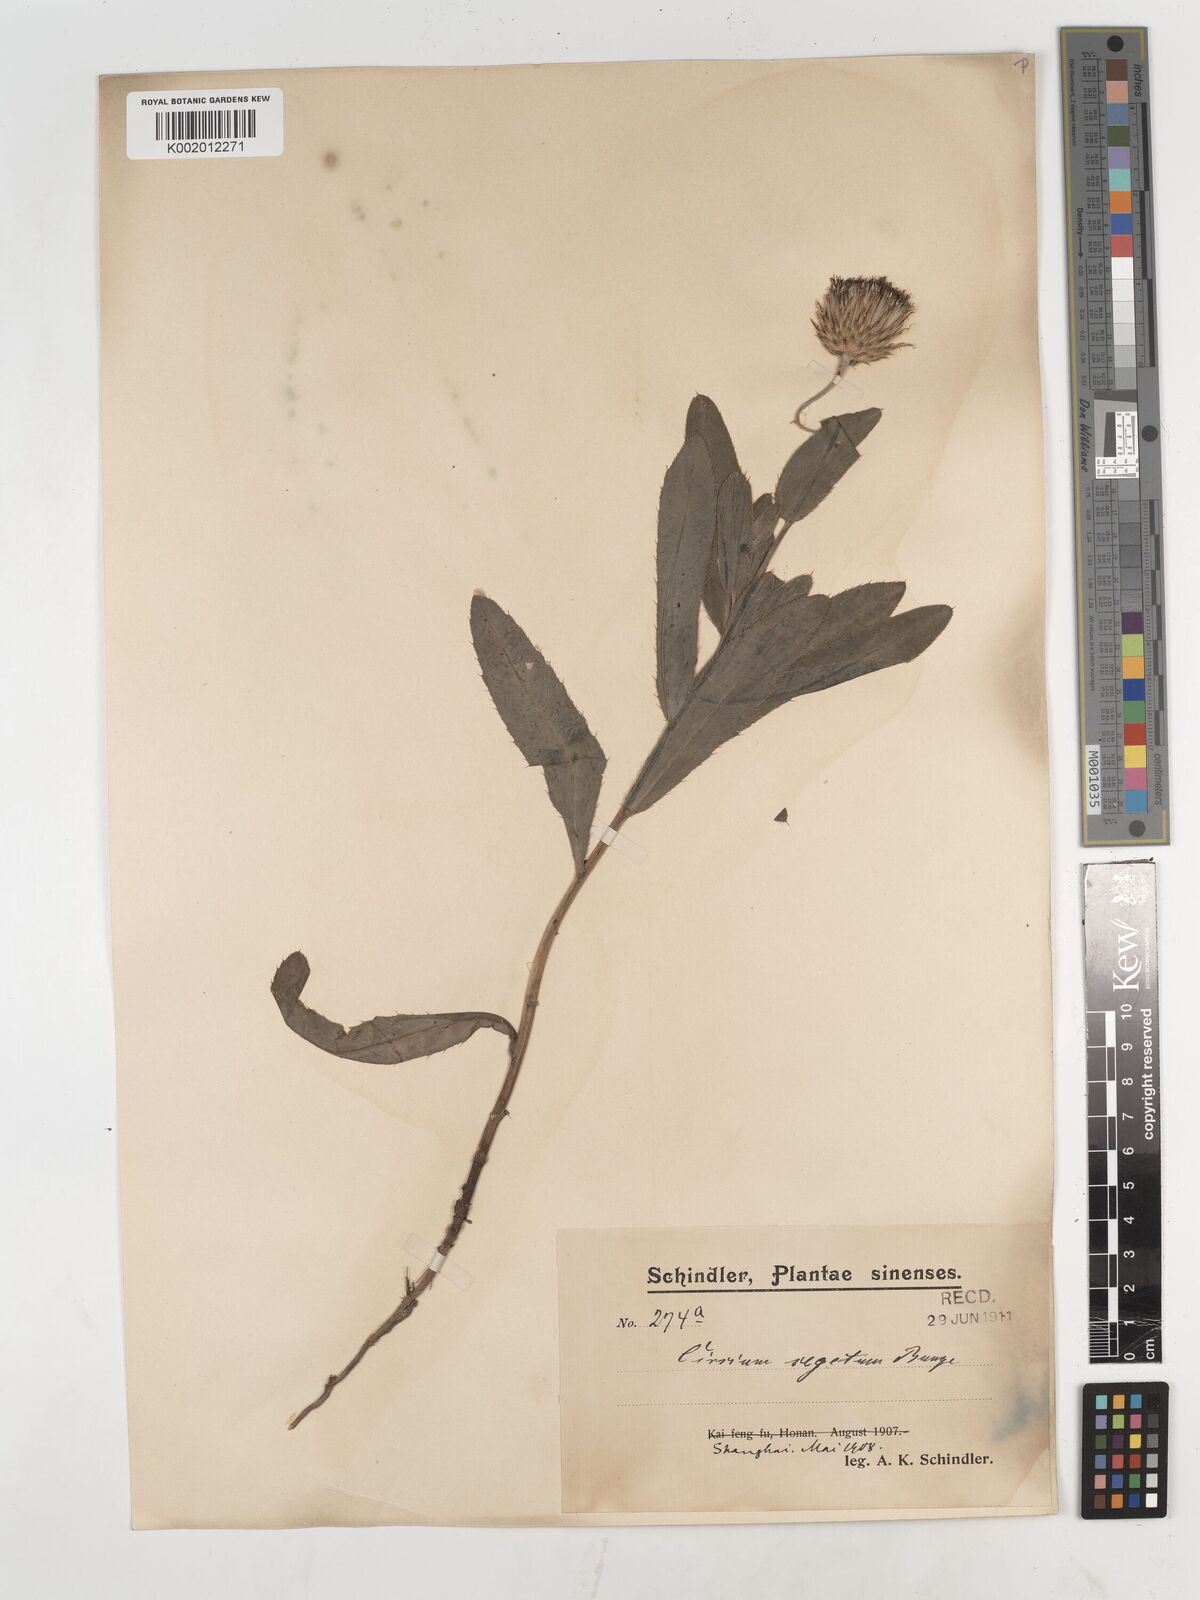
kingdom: Plantae
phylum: Tracheophyta
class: Magnoliopsida
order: Asterales
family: Asteraceae
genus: Cirsium
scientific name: Cirsium arvense
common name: Creeping thistle
